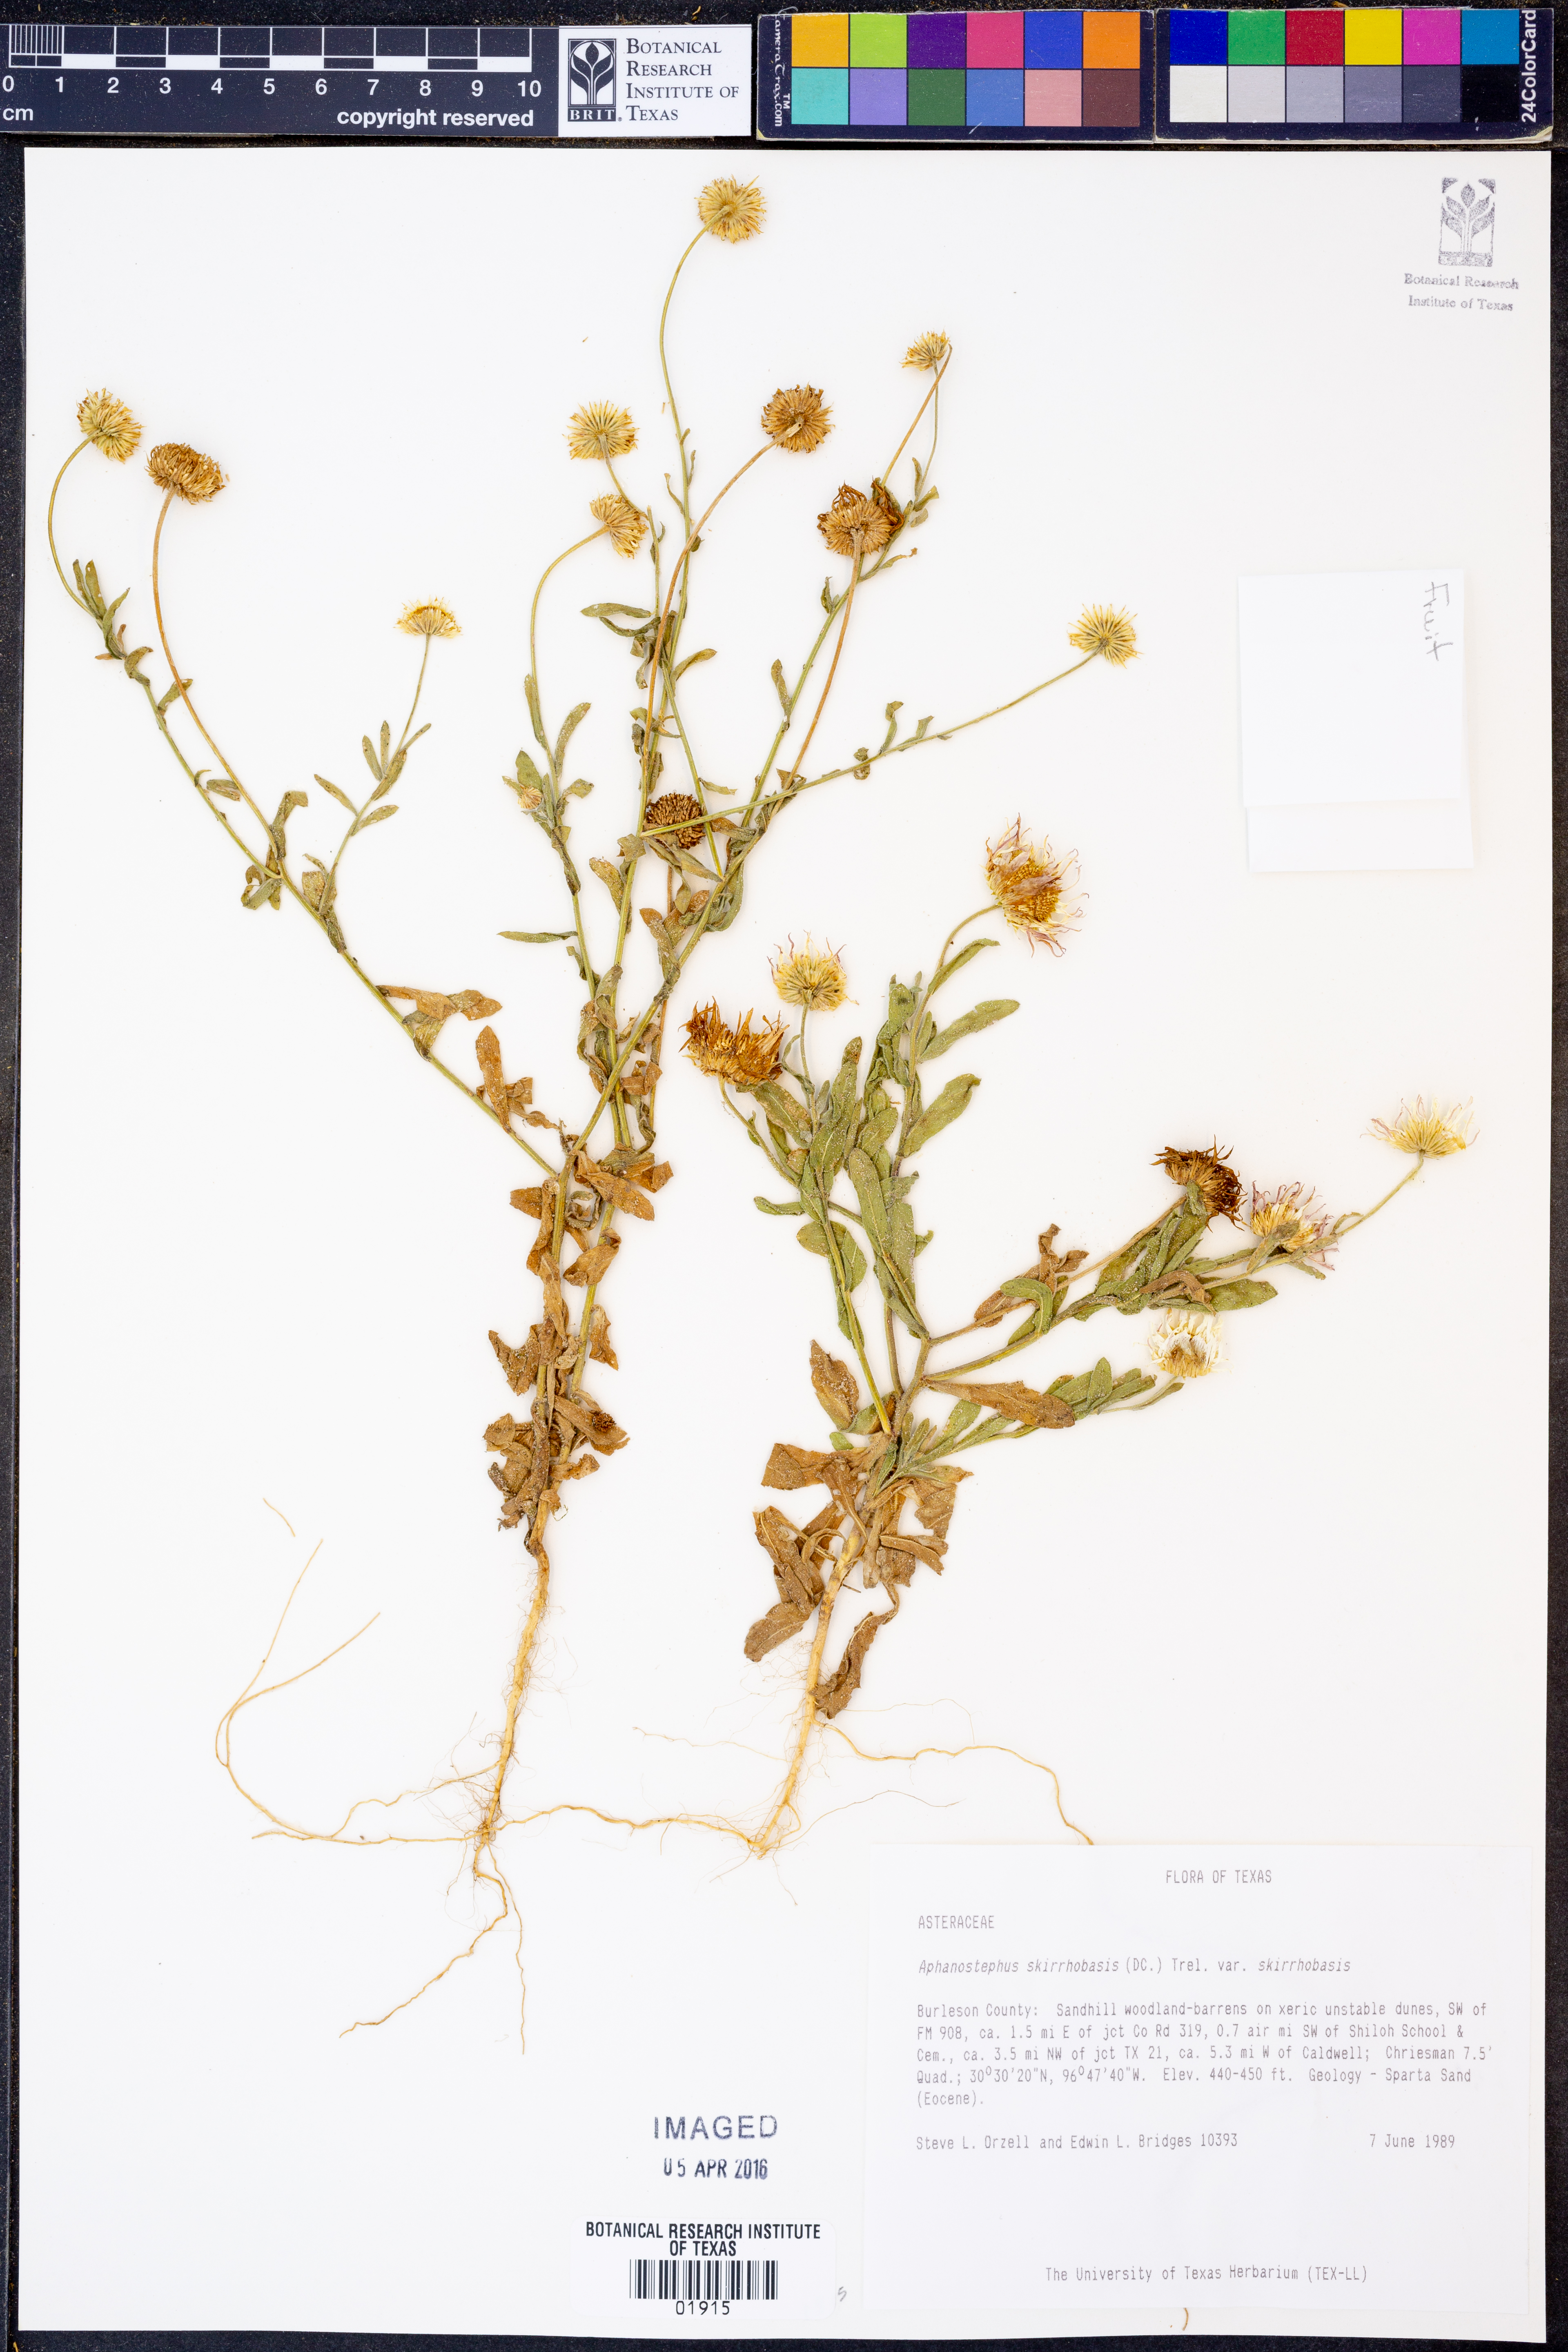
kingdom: Plantae
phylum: Tracheophyta
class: Magnoliopsida
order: Asterales
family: Asteraceae
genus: Aphanostephus
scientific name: Aphanostephus skirrhobasis
